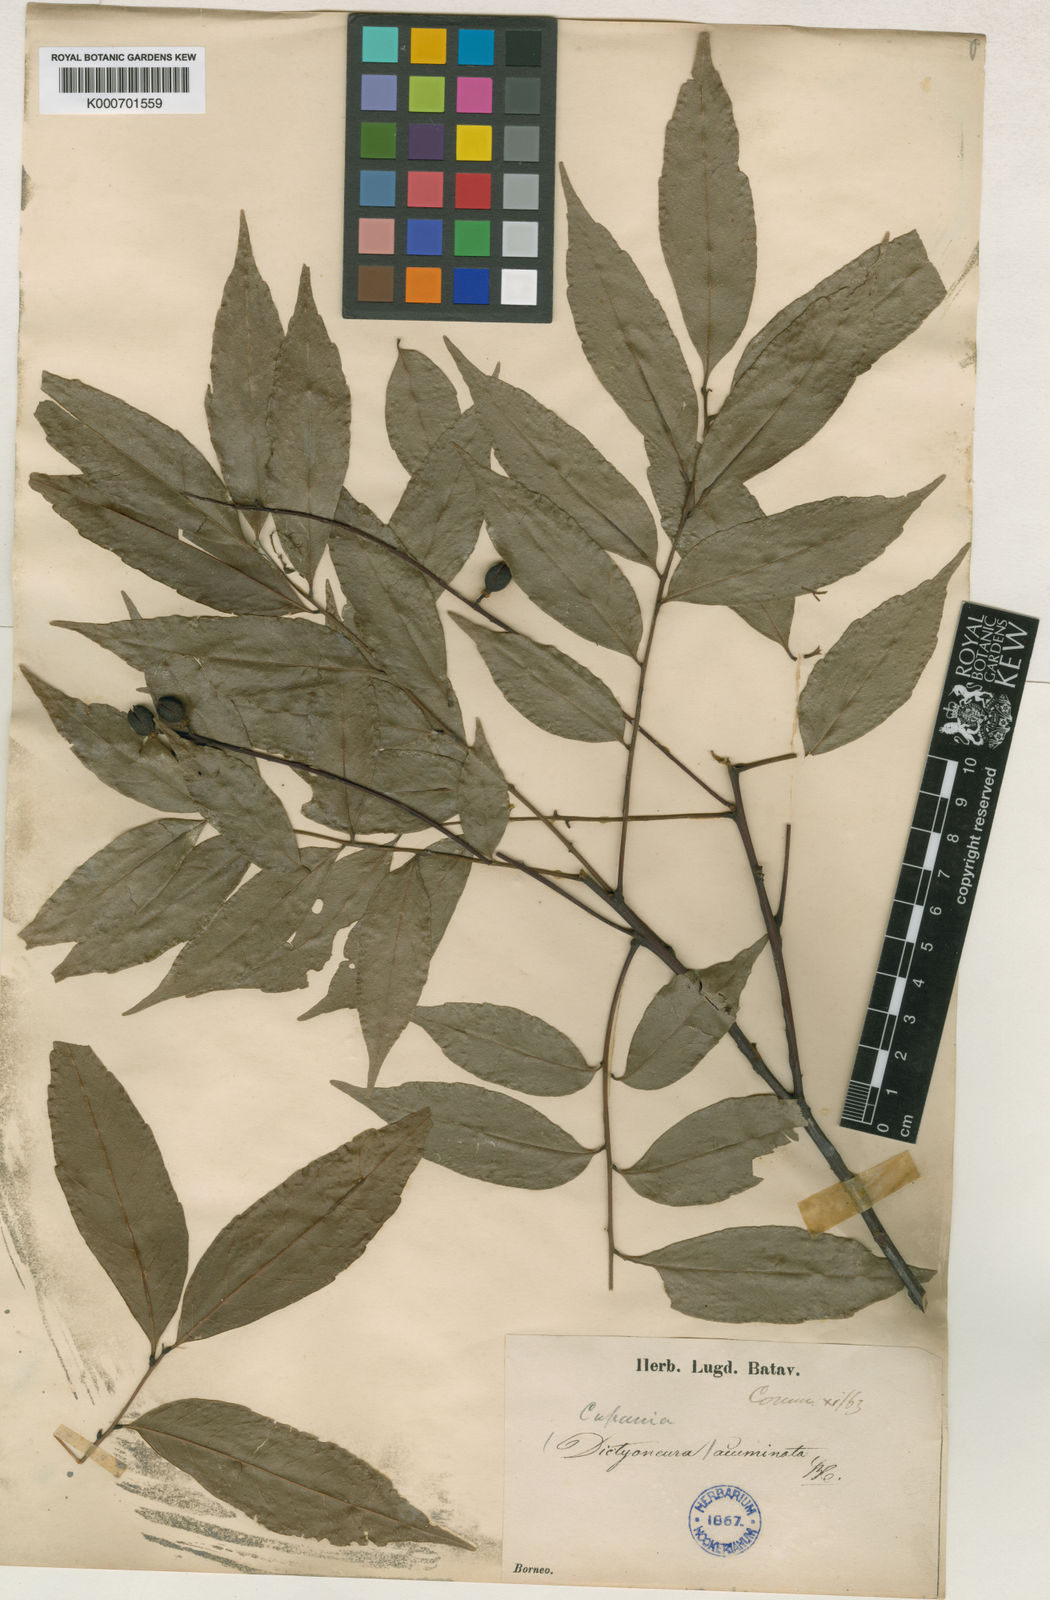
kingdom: Plantae
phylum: Tracheophyta
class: Magnoliopsida
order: Sapindales
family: Sapindaceae
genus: Dictyoneura
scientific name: Dictyoneura acuminata
